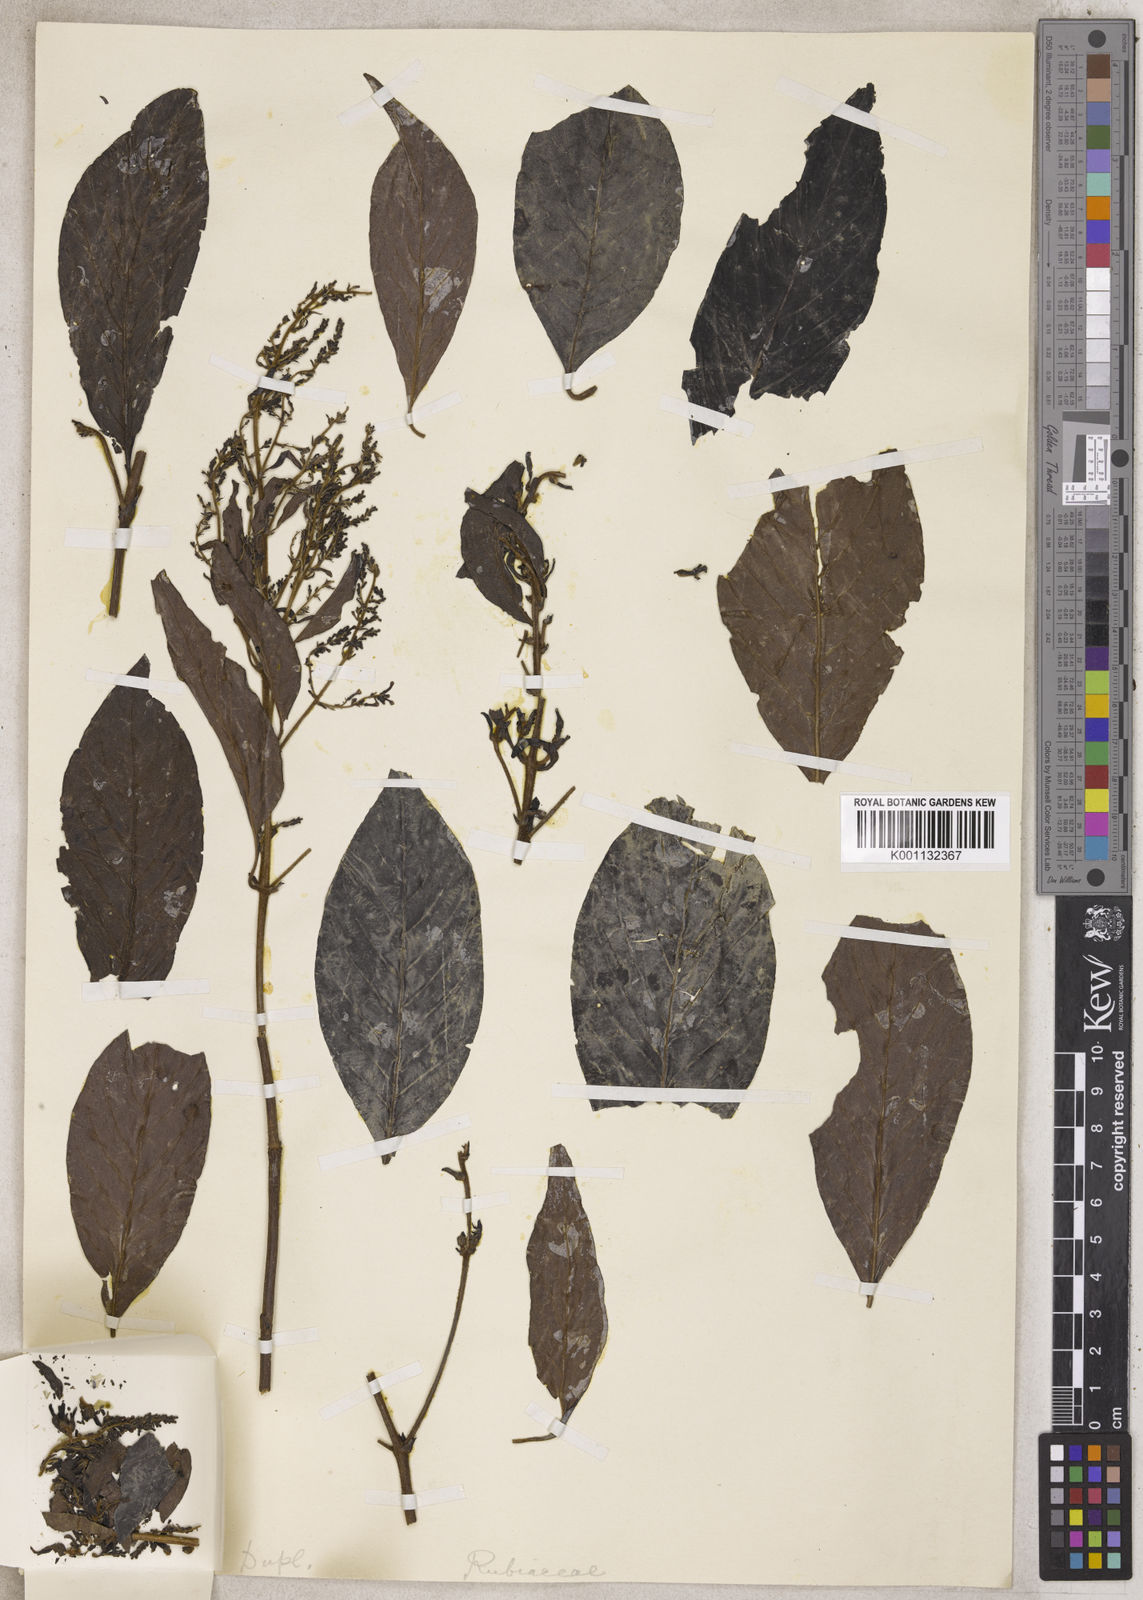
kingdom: Plantae
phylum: Tracheophyta
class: Magnoliopsida
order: Gentianales
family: Rubiaceae
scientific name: Rubiaceae
